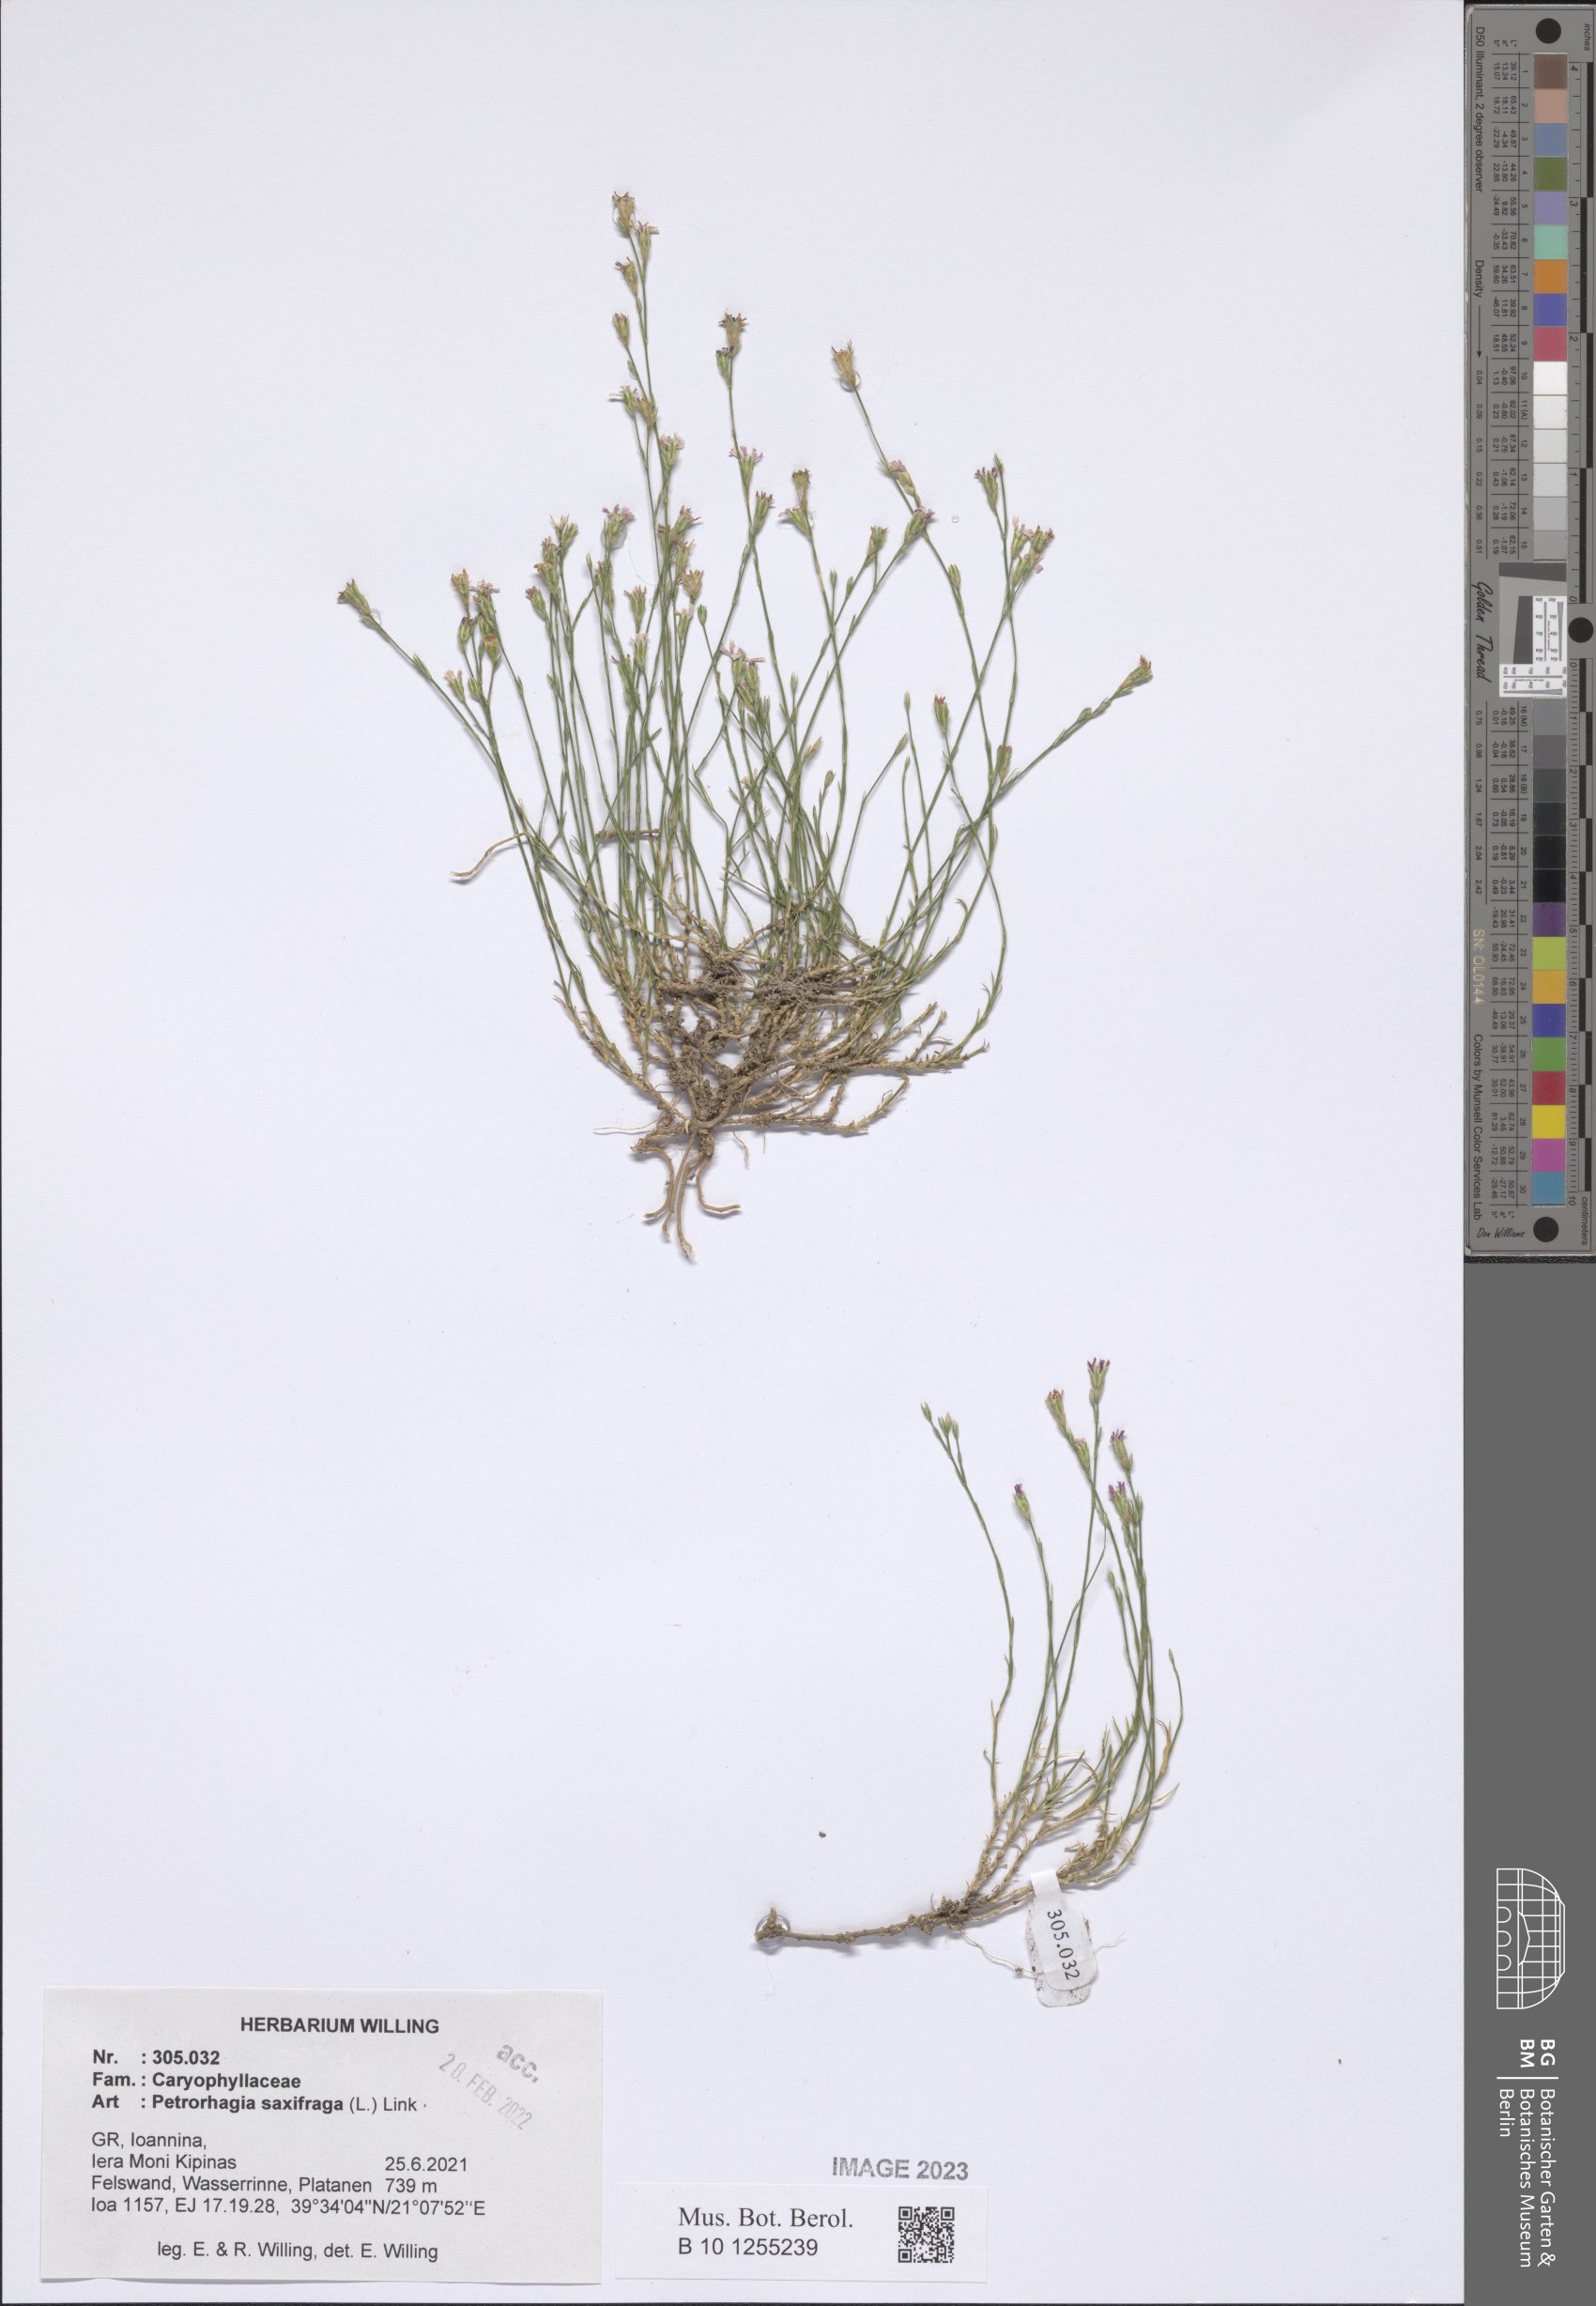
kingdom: Plantae
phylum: Tracheophyta
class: Magnoliopsida
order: Caryophyllales
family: Caryophyllaceae
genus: Petrorhagia
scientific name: Petrorhagia saxifraga
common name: Tunicflower
